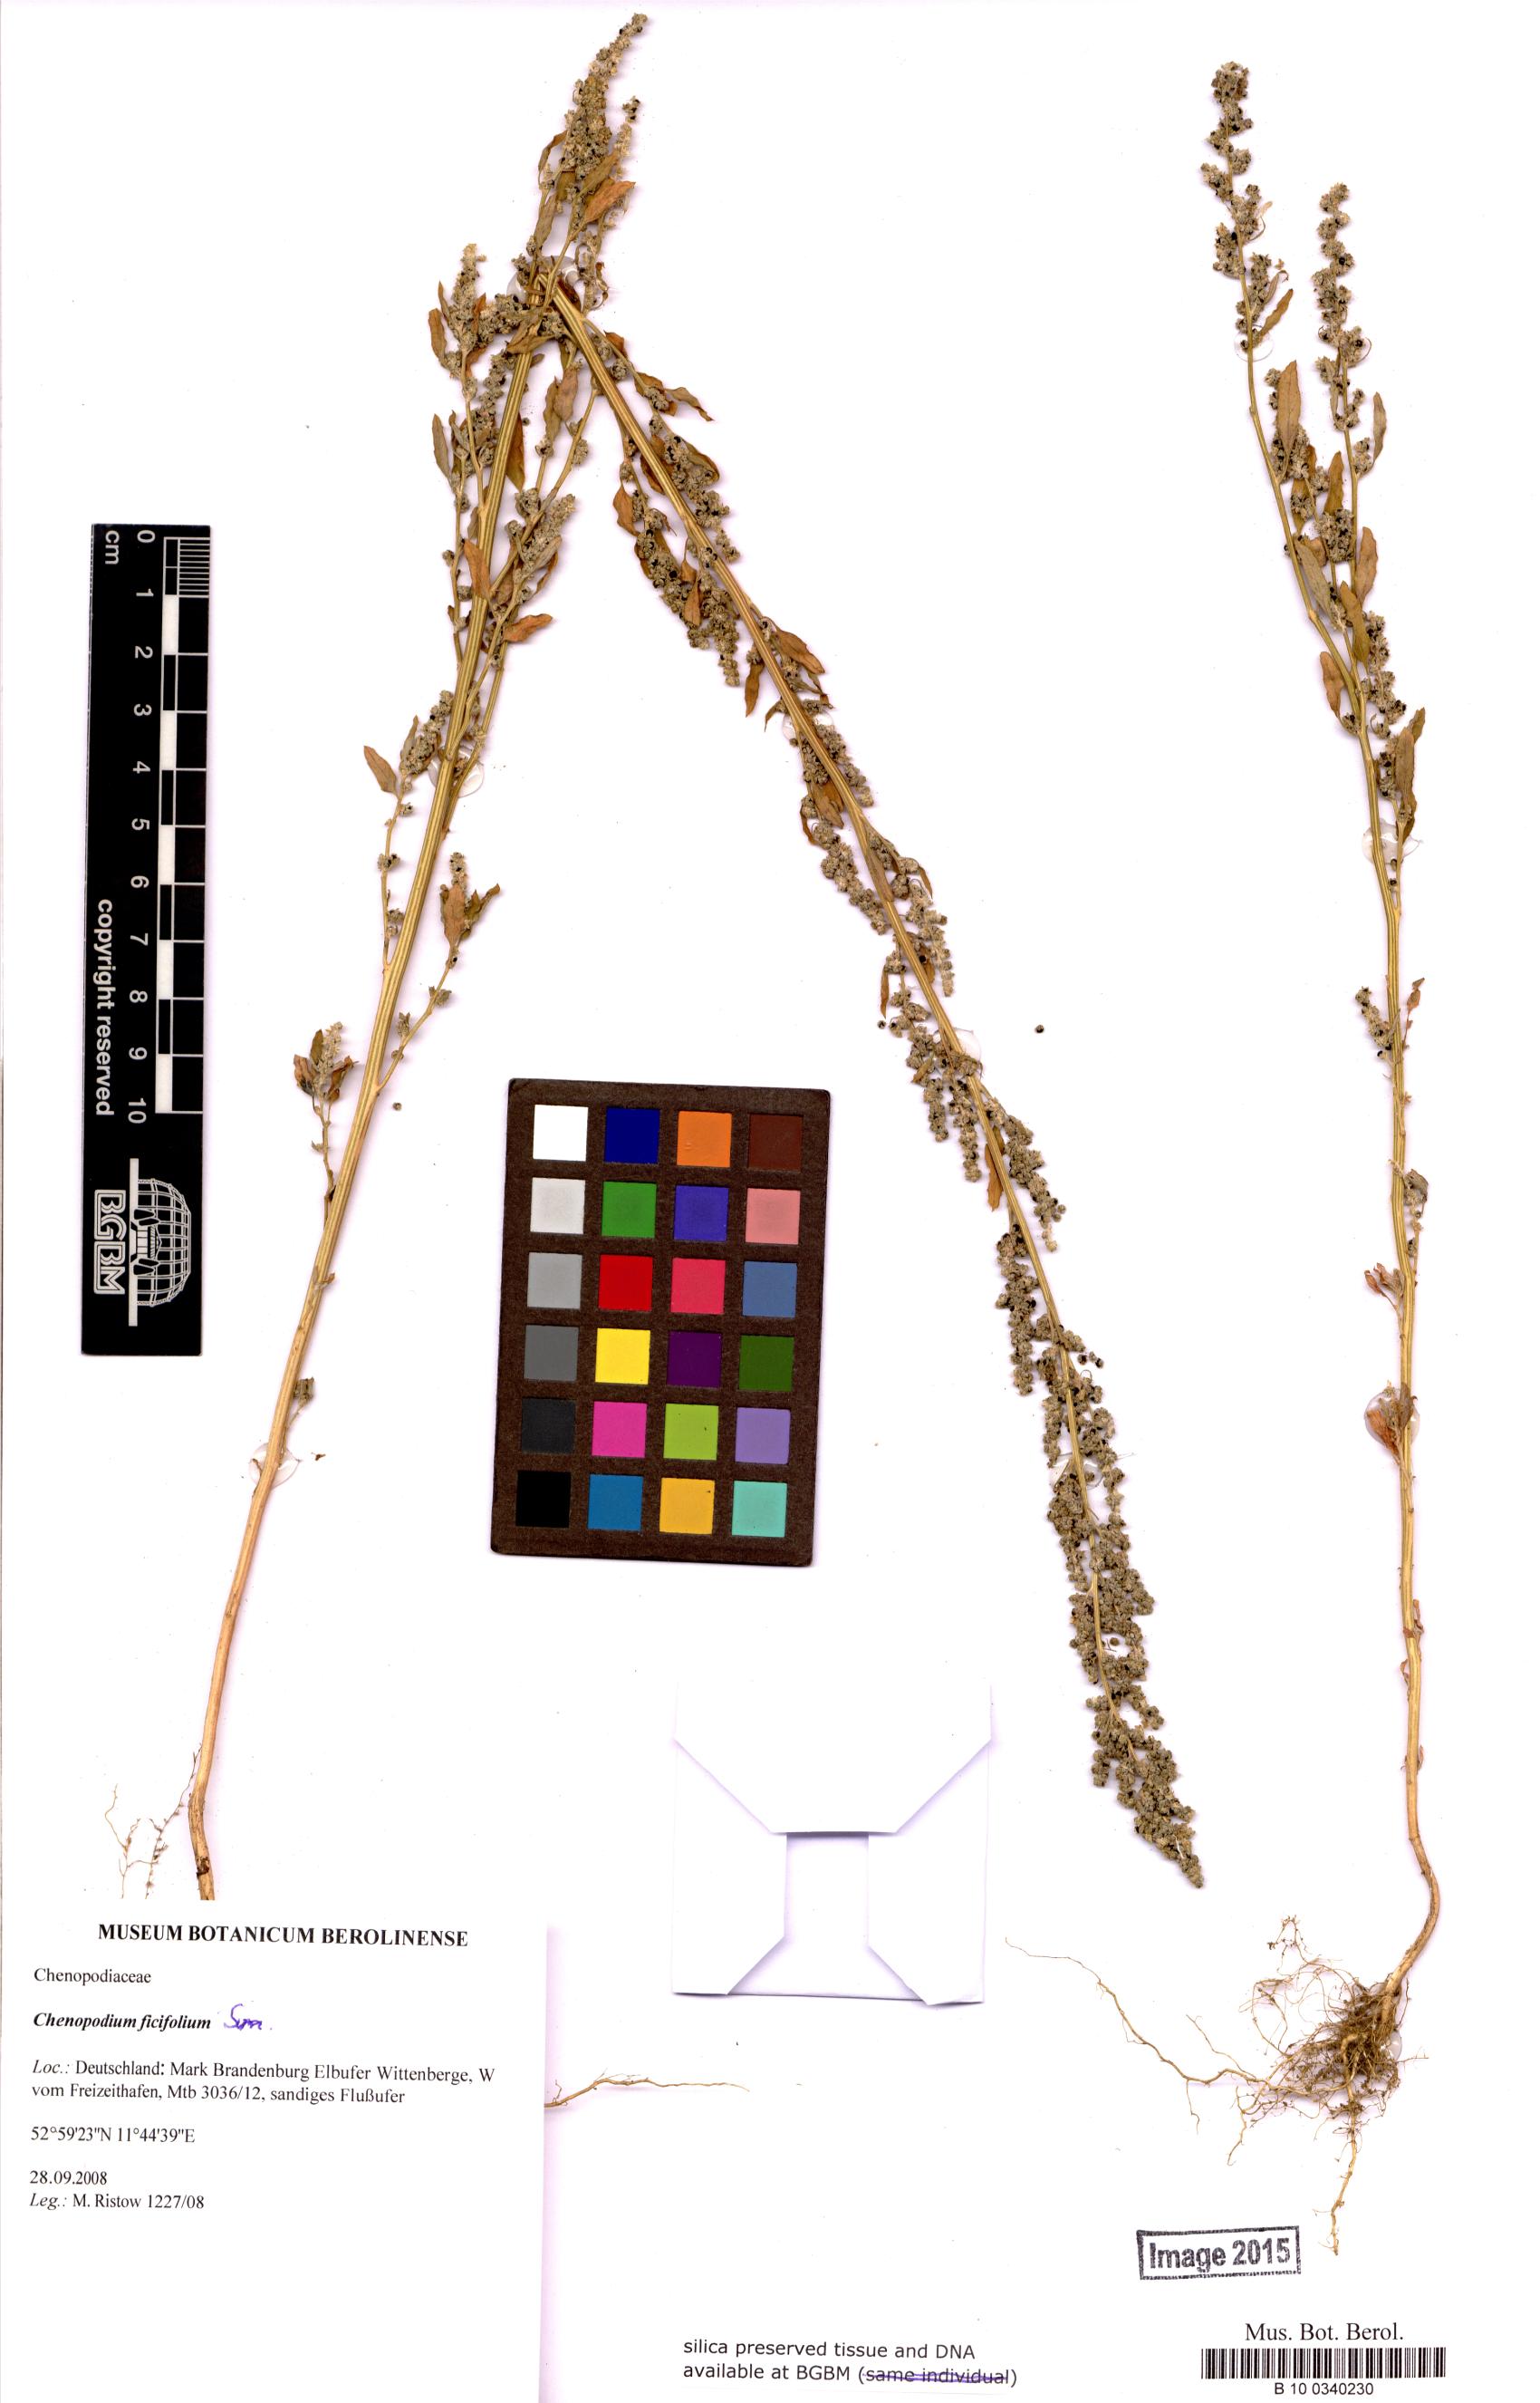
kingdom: Plantae
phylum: Tracheophyta
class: Magnoliopsida
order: Caryophyllales
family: Amaranthaceae
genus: Chenopodium
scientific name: Chenopodium ficifolium
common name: Fig-leaved goosefoot
